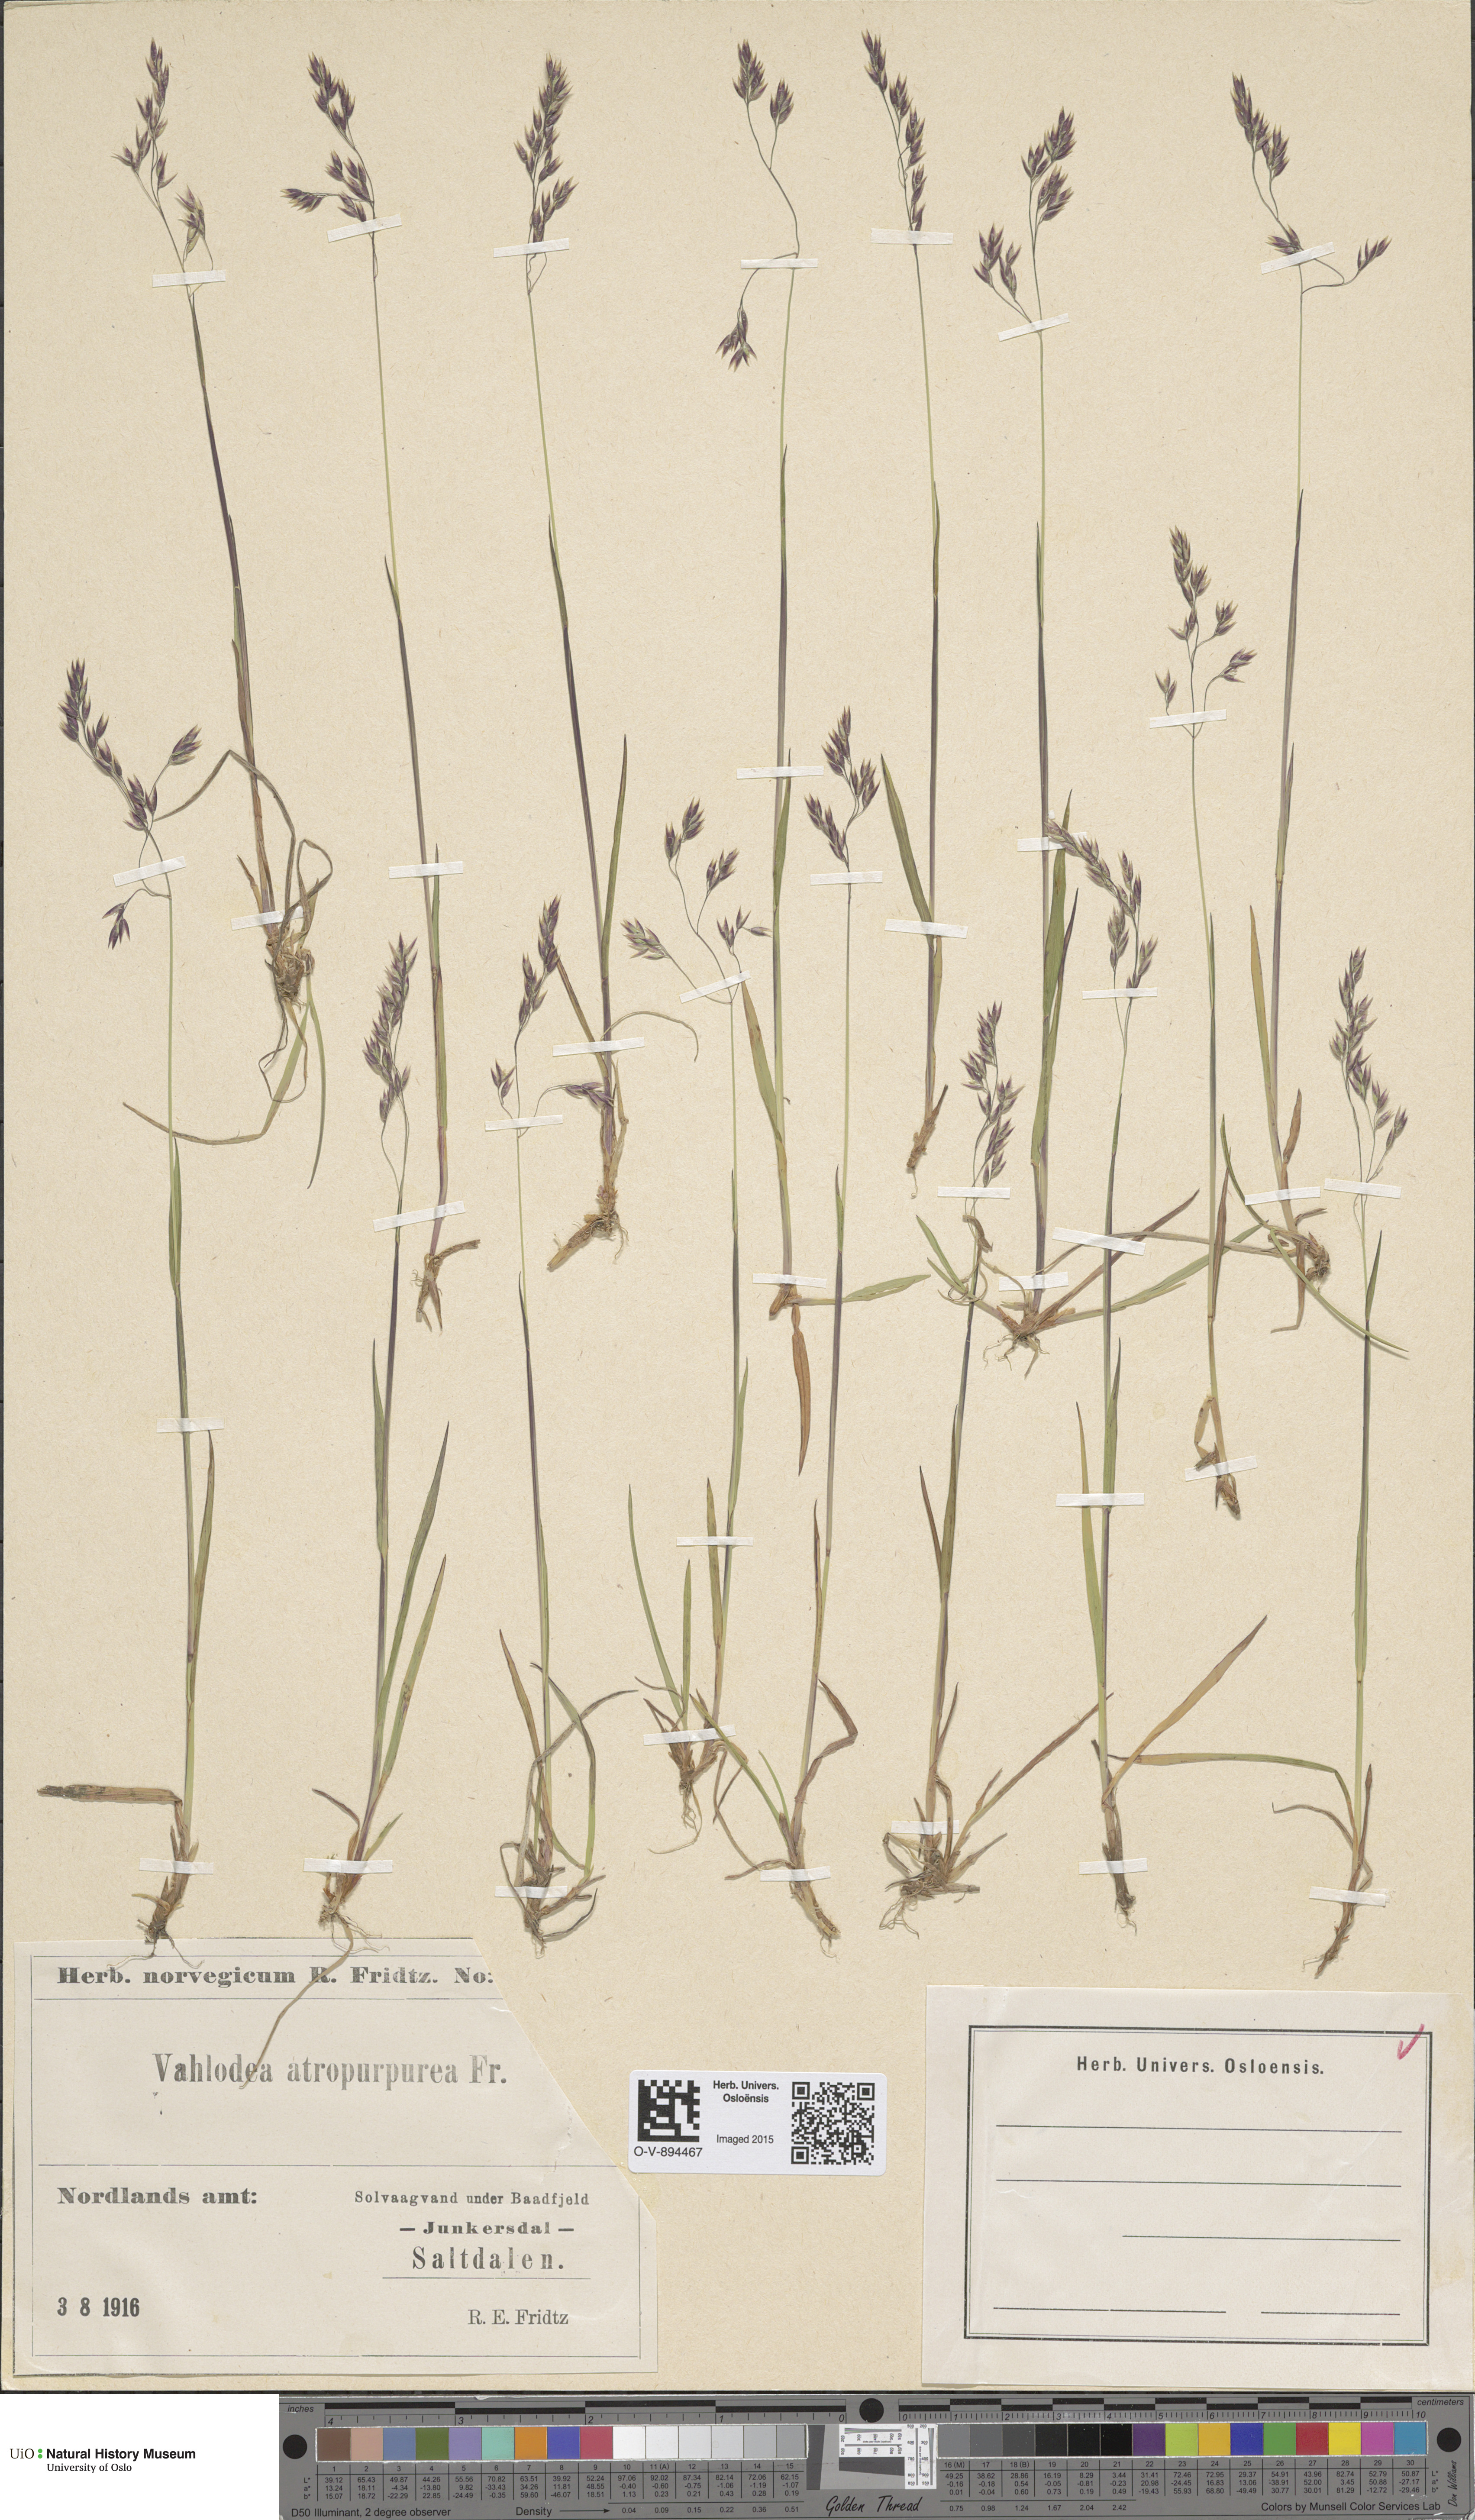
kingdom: Plantae
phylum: Tracheophyta
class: Liliopsida
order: Poales
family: Poaceae
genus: Vahlodea
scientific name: Vahlodea atropurpurea
